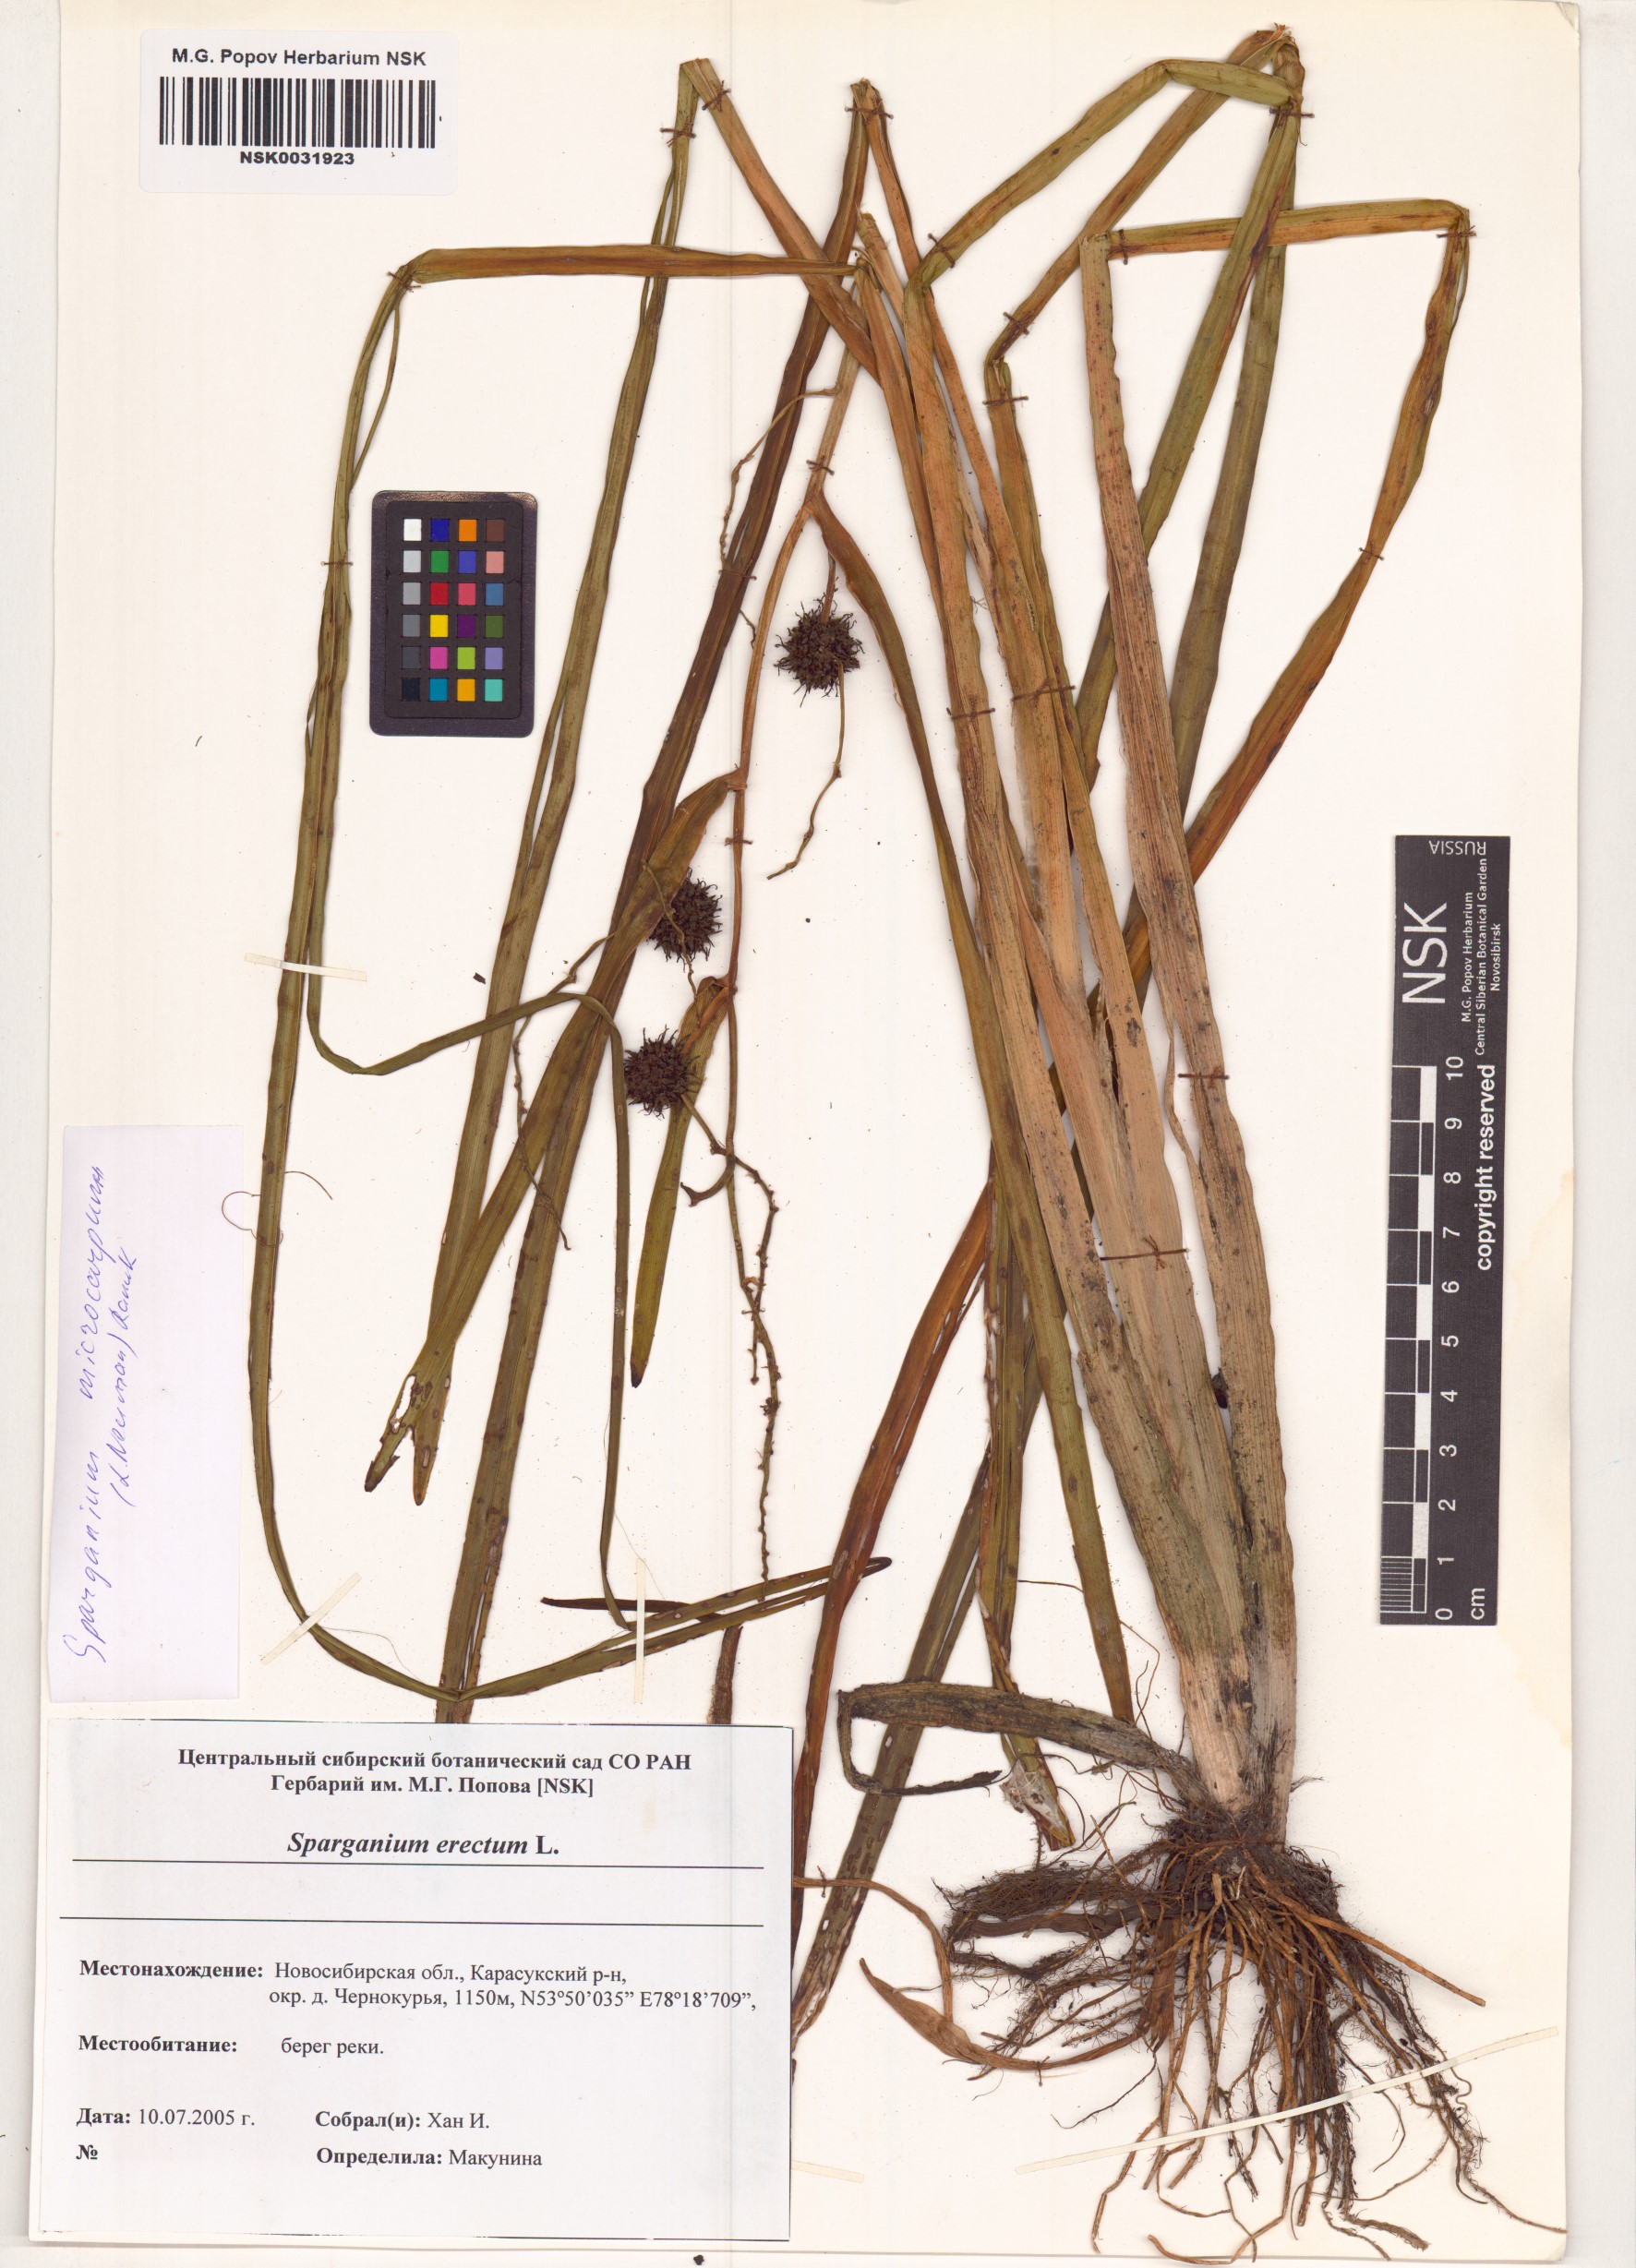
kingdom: Plantae
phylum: Tracheophyta
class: Liliopsida
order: Poales
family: Typhaceae
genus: Sparganium
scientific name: Sparganium erectum
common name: Branched bur-reed
